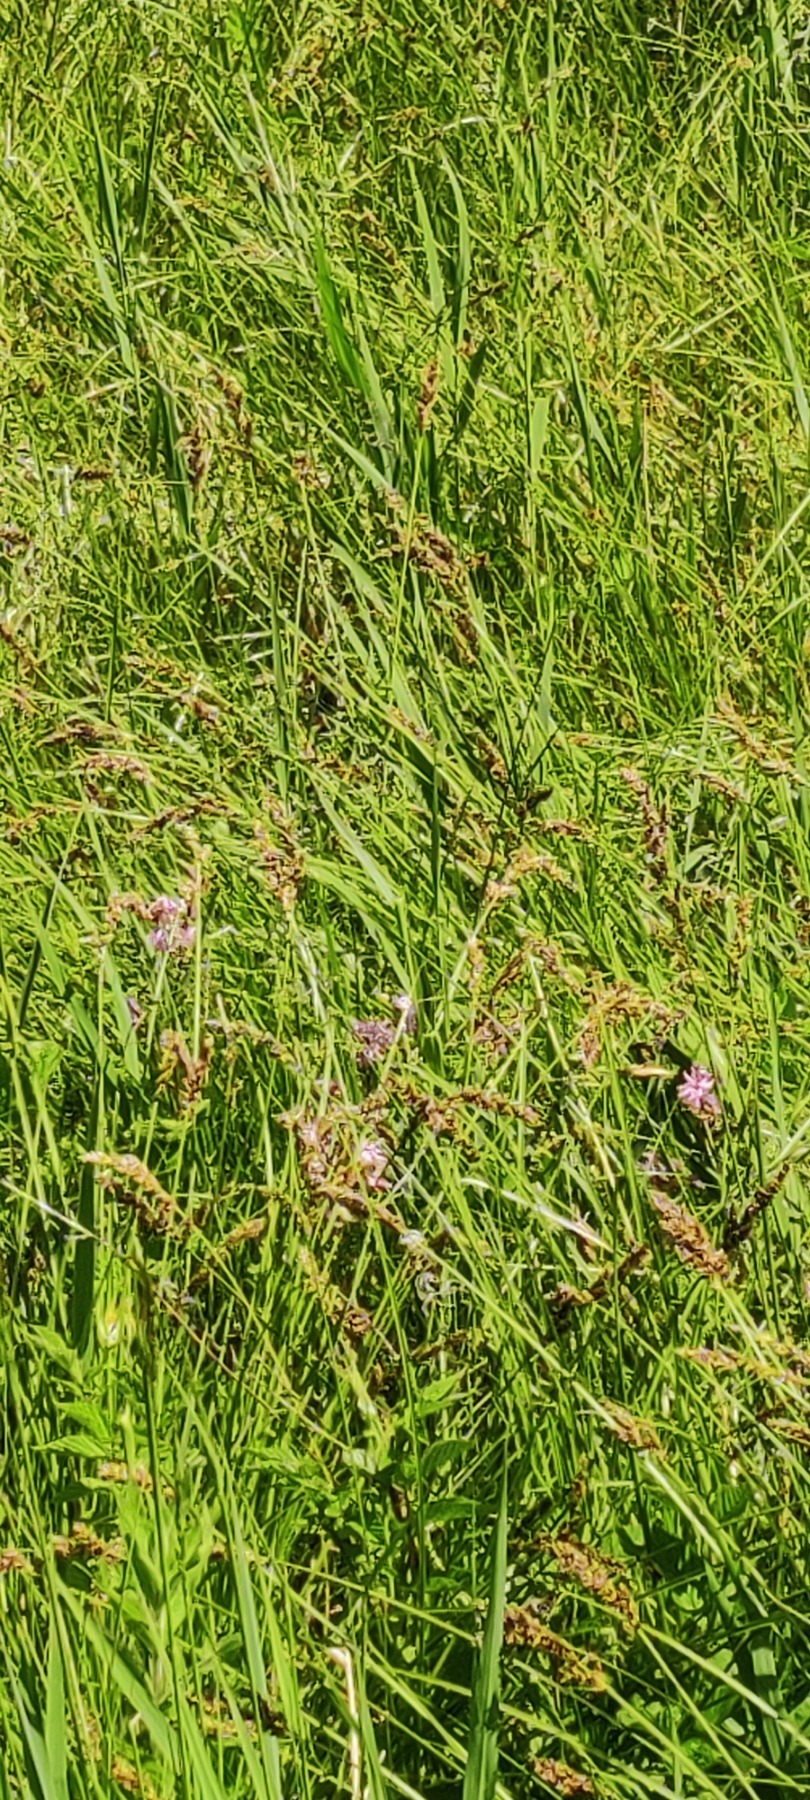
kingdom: Plantae
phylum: Tracheophyta
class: Magnoliopsida
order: Caryophyllales
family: Caryophyllaceae
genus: Silene
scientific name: Silene flos-cuculi
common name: Trævlekrone
